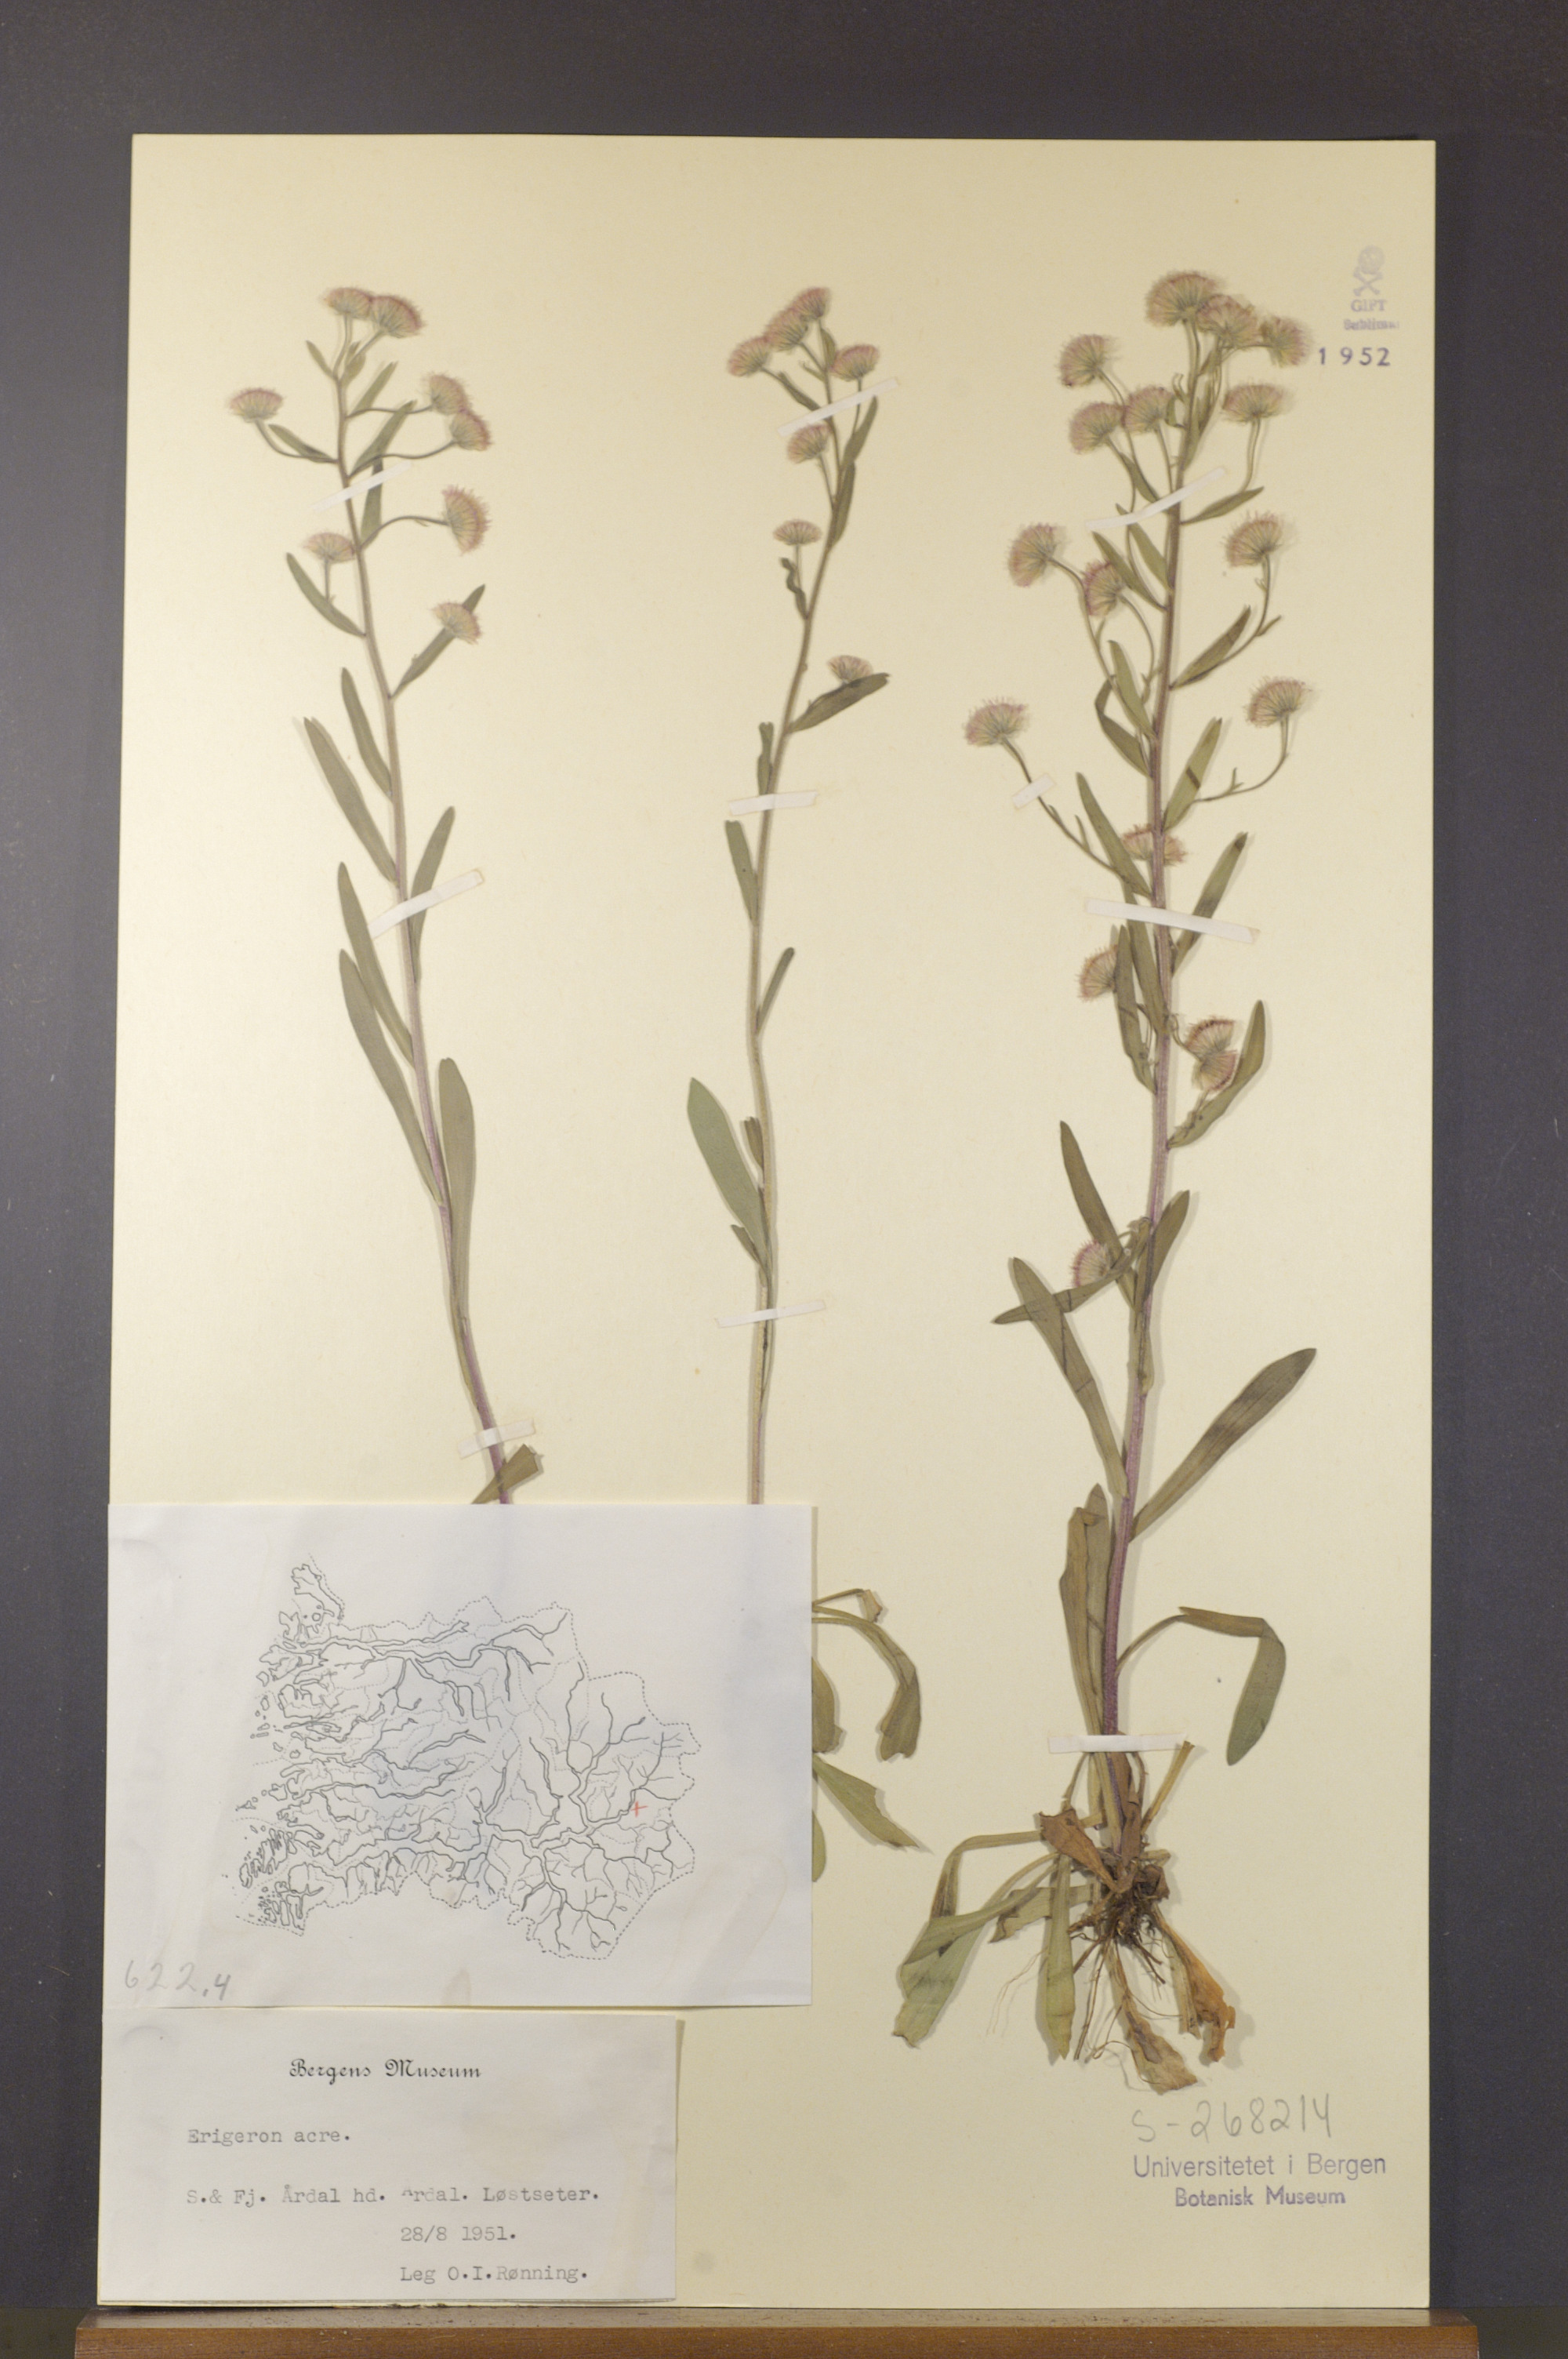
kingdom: Plantae
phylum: Tracheophyta
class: Magnoliopsida
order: Asterales
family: Asteraceae
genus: Erigeron
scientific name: Erigeron acris
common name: Blue fleabane
